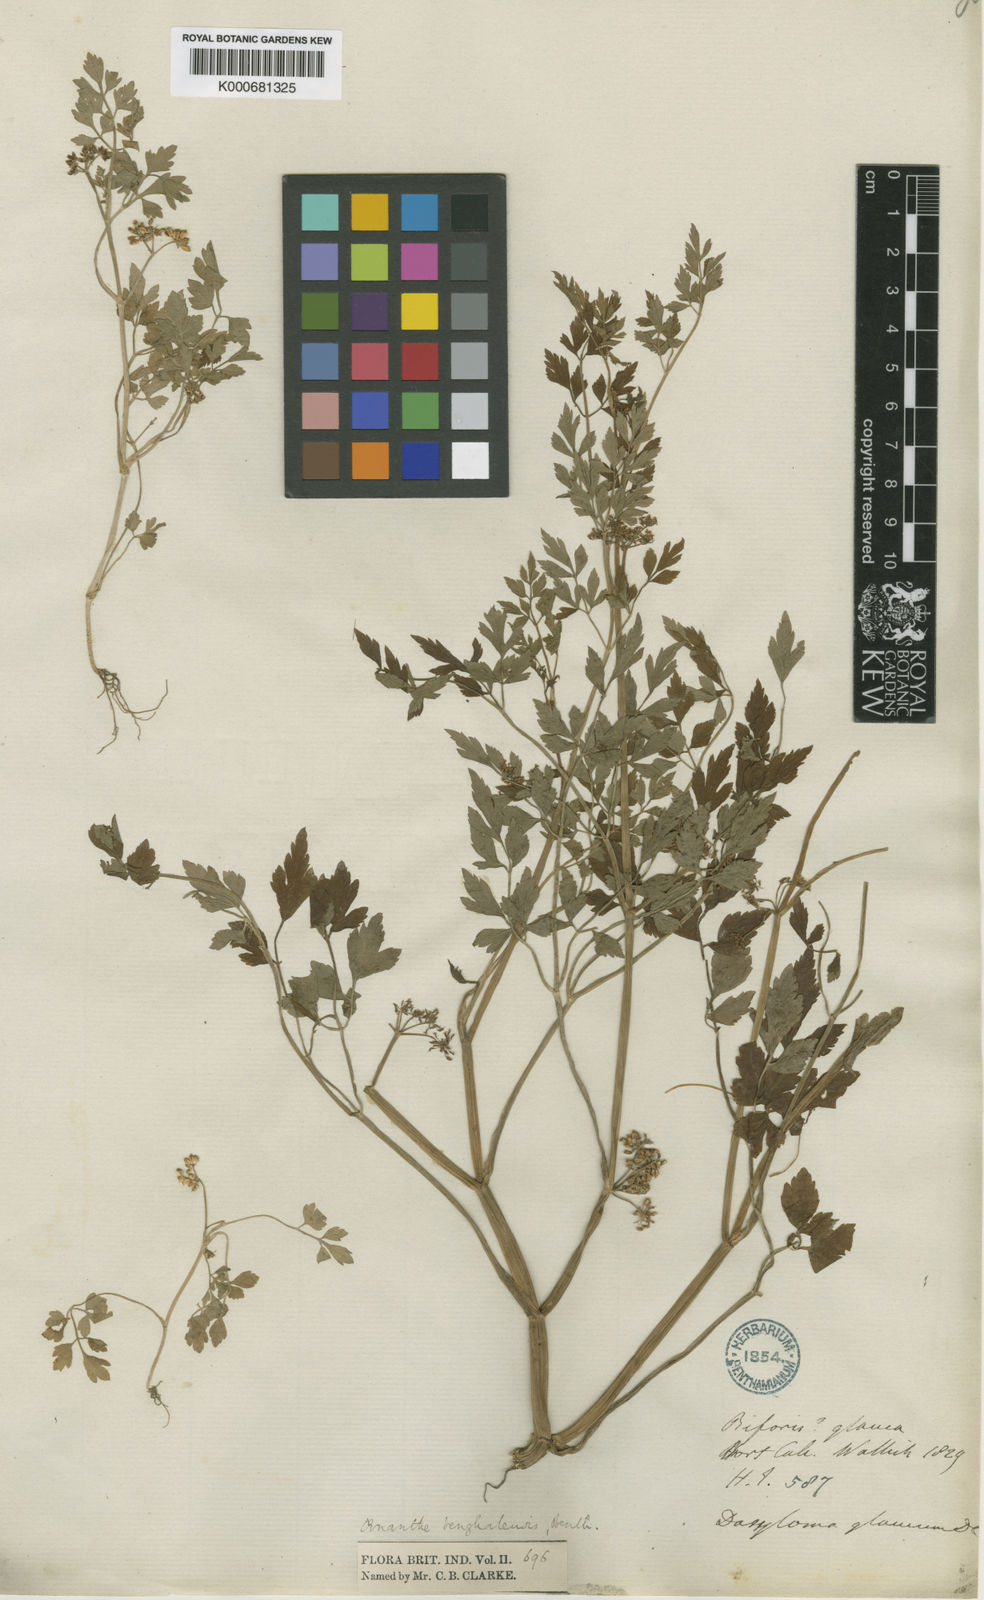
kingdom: Plantae
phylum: Tracheophyta
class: Magnoliopsida
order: Apiales
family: Apiaceae
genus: Oenanthe
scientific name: Oenanthe
